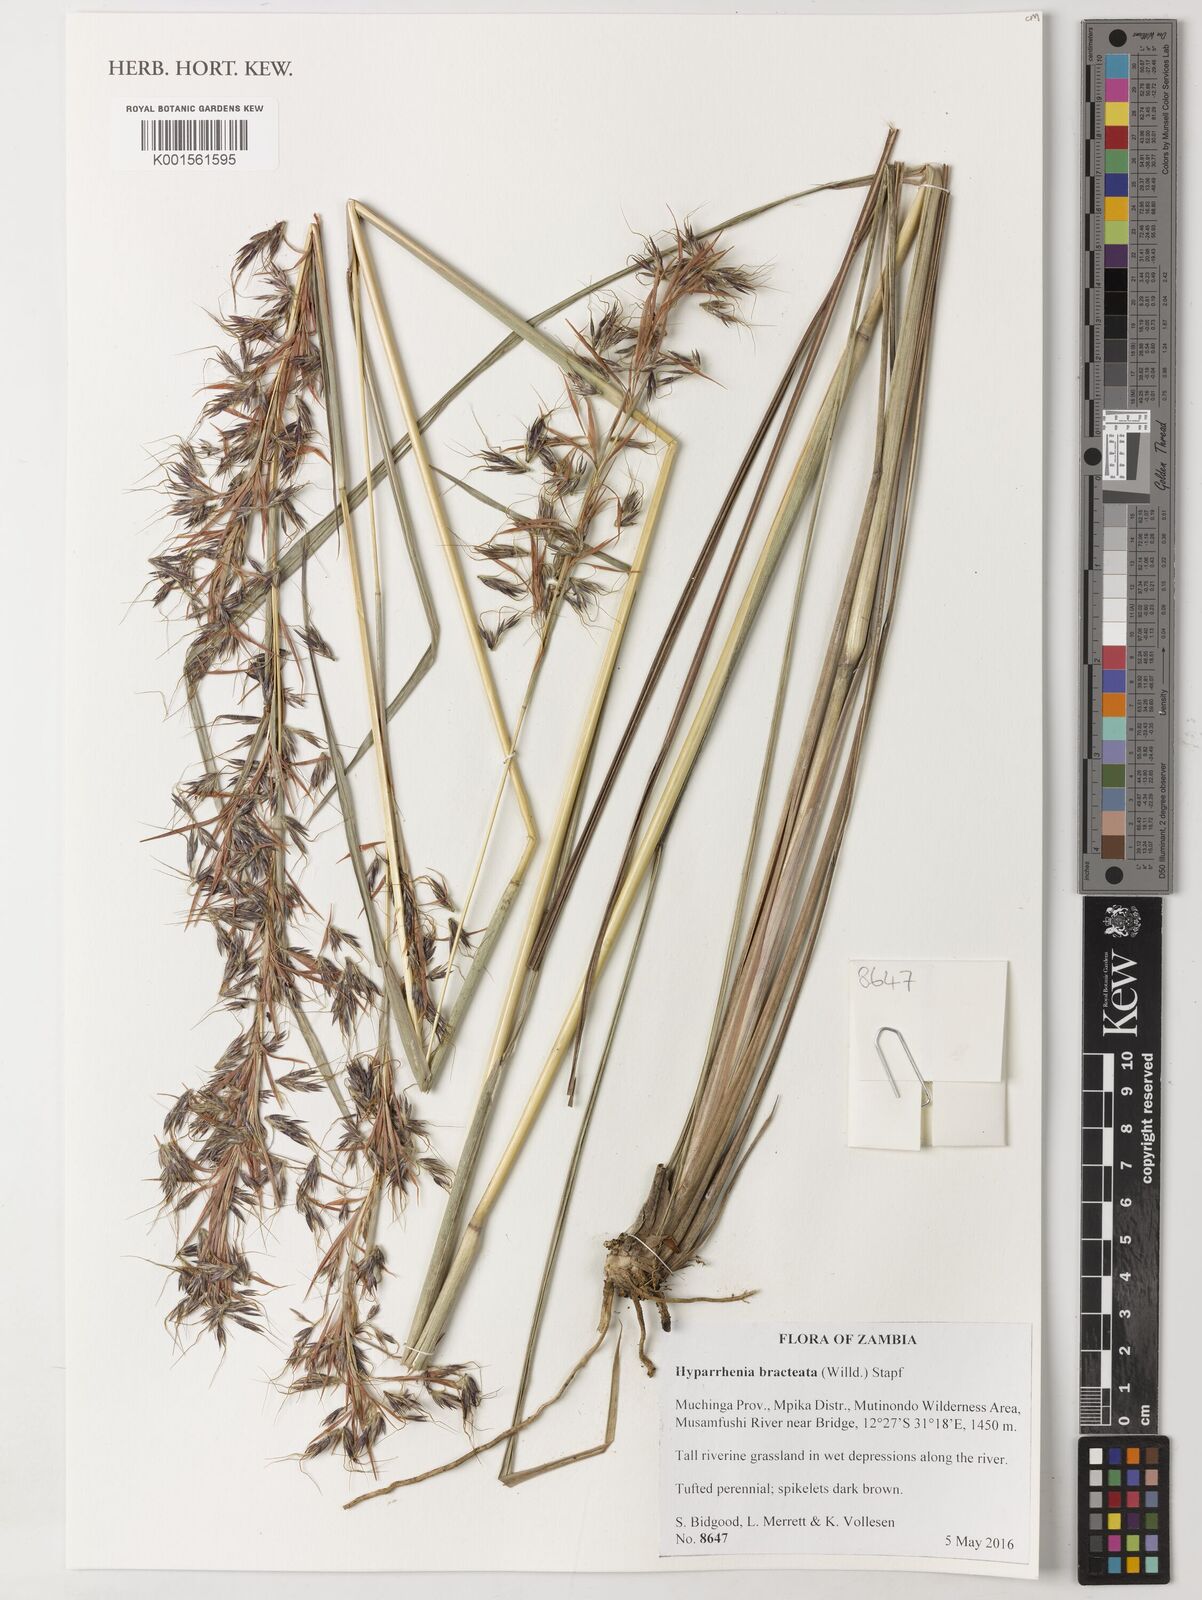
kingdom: Plantae
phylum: Tracheophyta
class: Liliopsida
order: Poales
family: Poaceae
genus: Hyparrhenia
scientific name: Hyparrhenia bracteata
